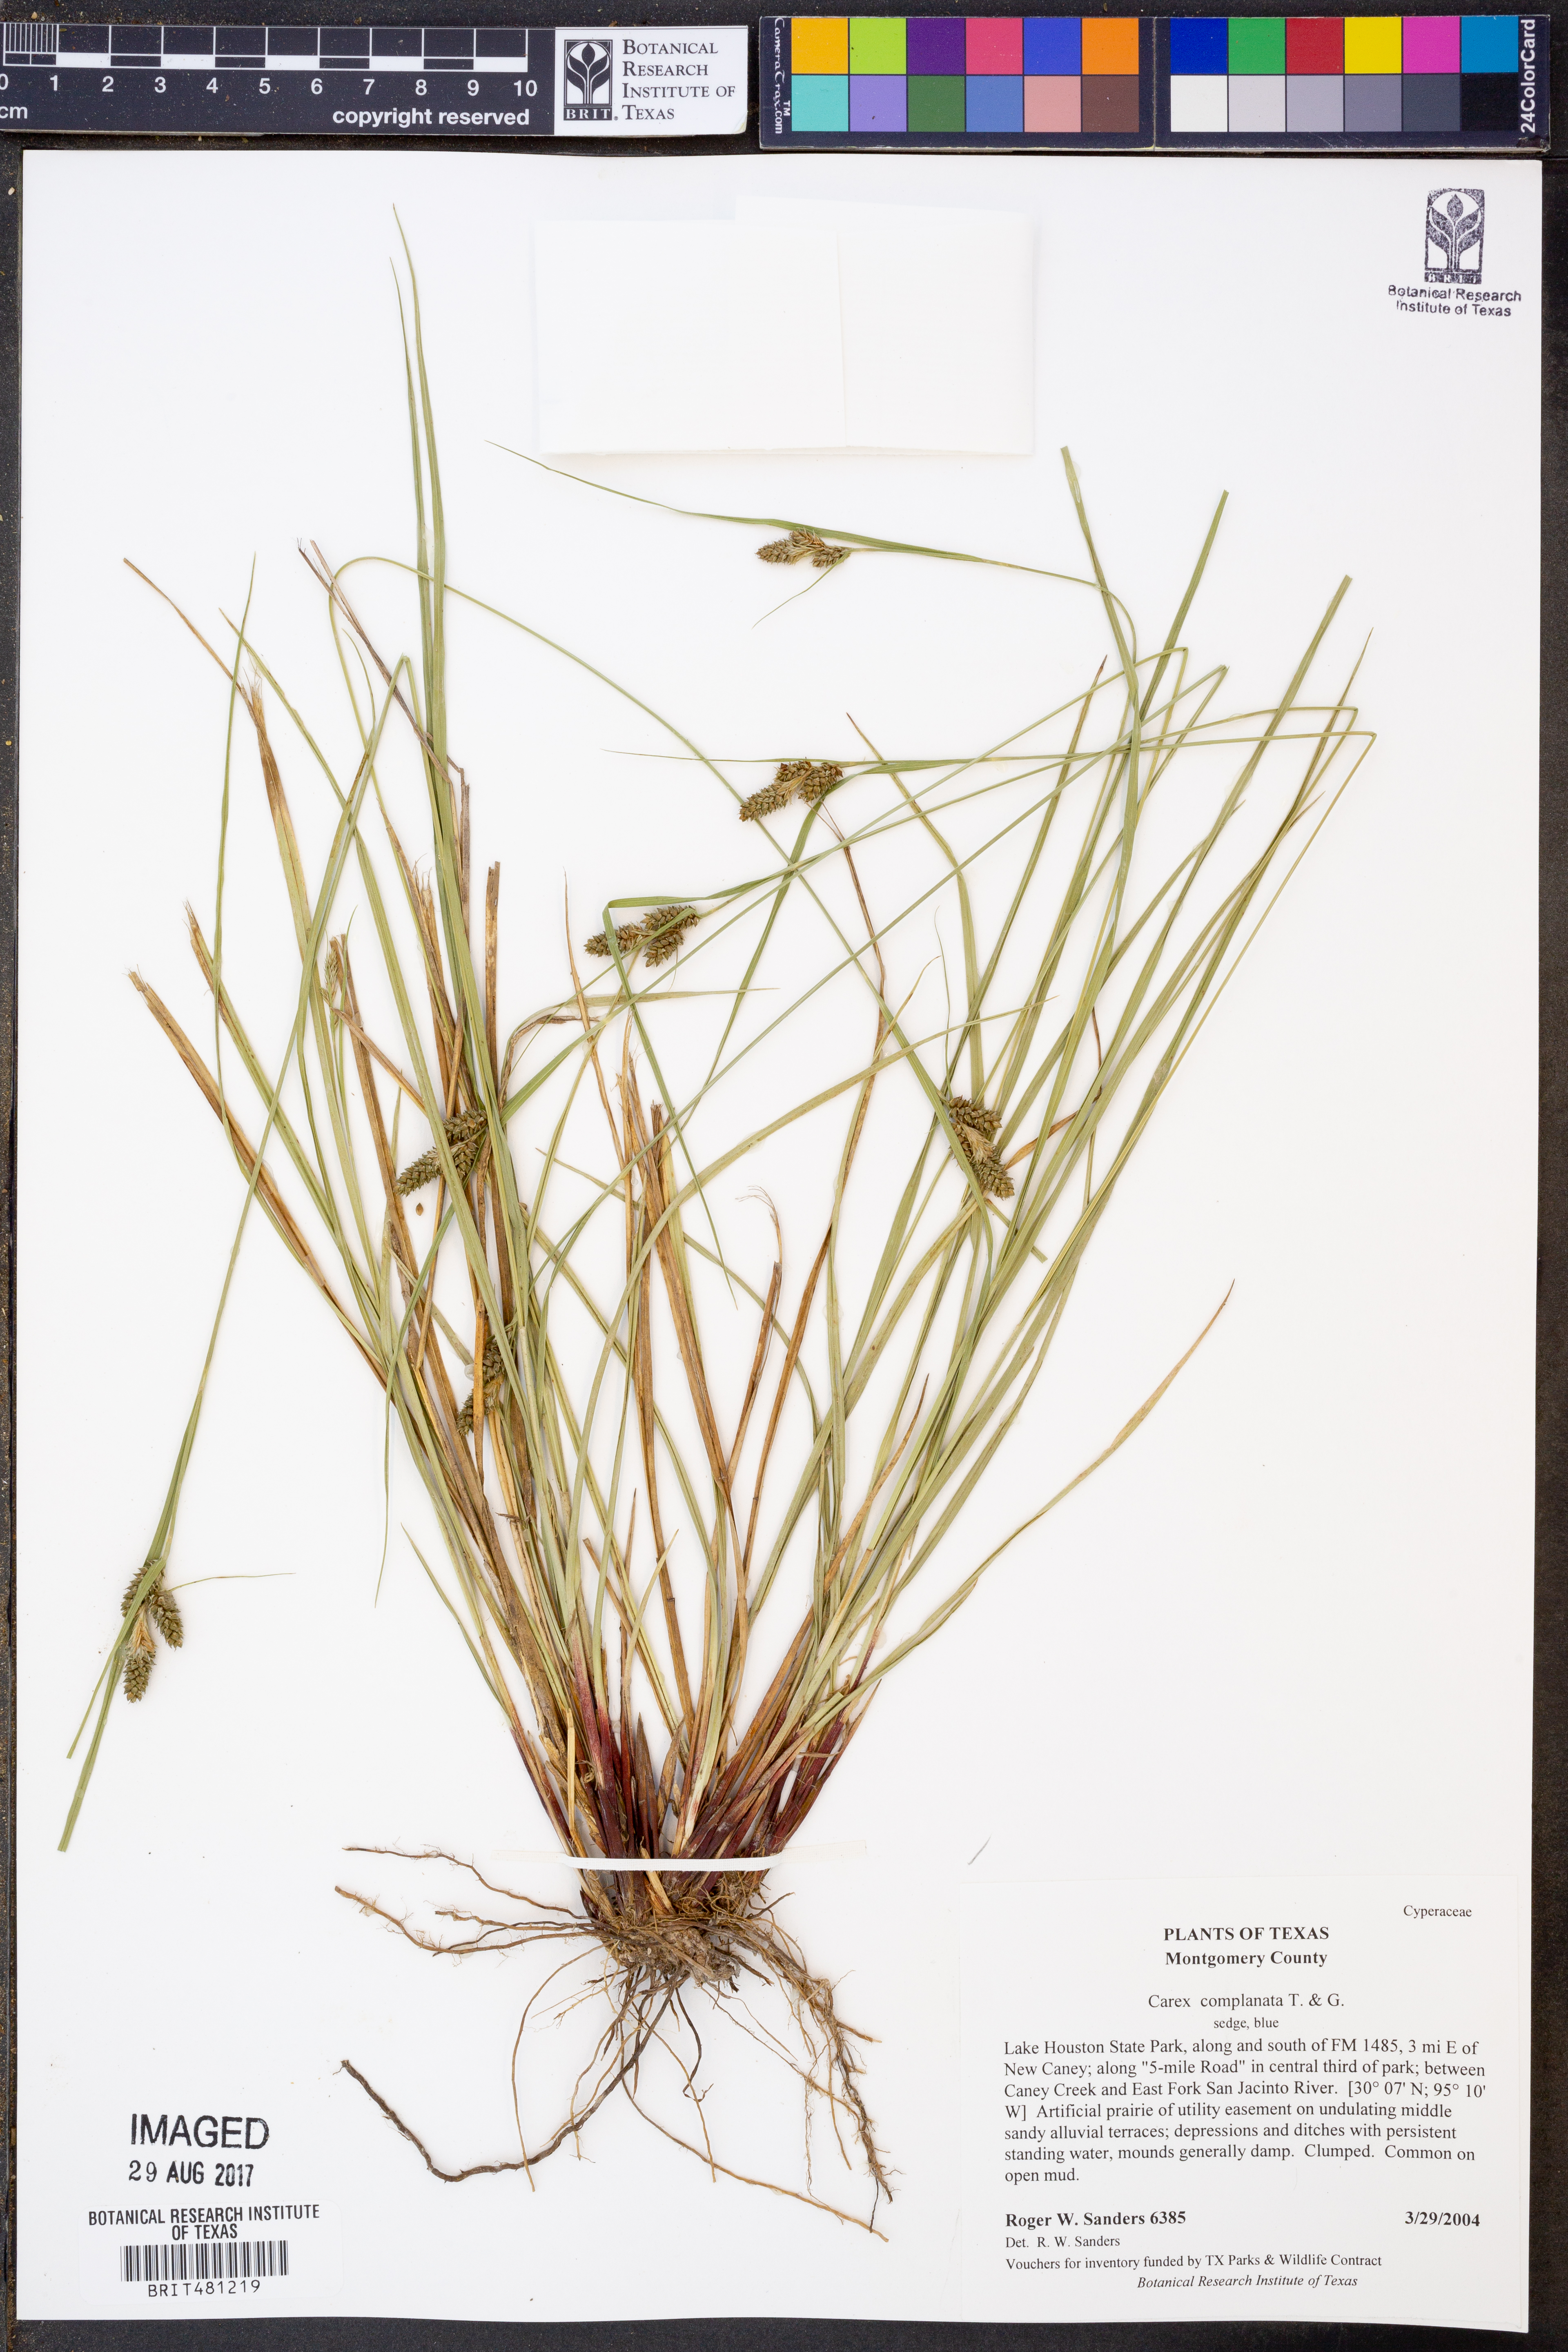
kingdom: Plantae
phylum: Tracheophyta
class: Liliopsida
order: Poales
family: Cyperaceae
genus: Carex
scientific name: Carex complanata
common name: Hirsute sedge
